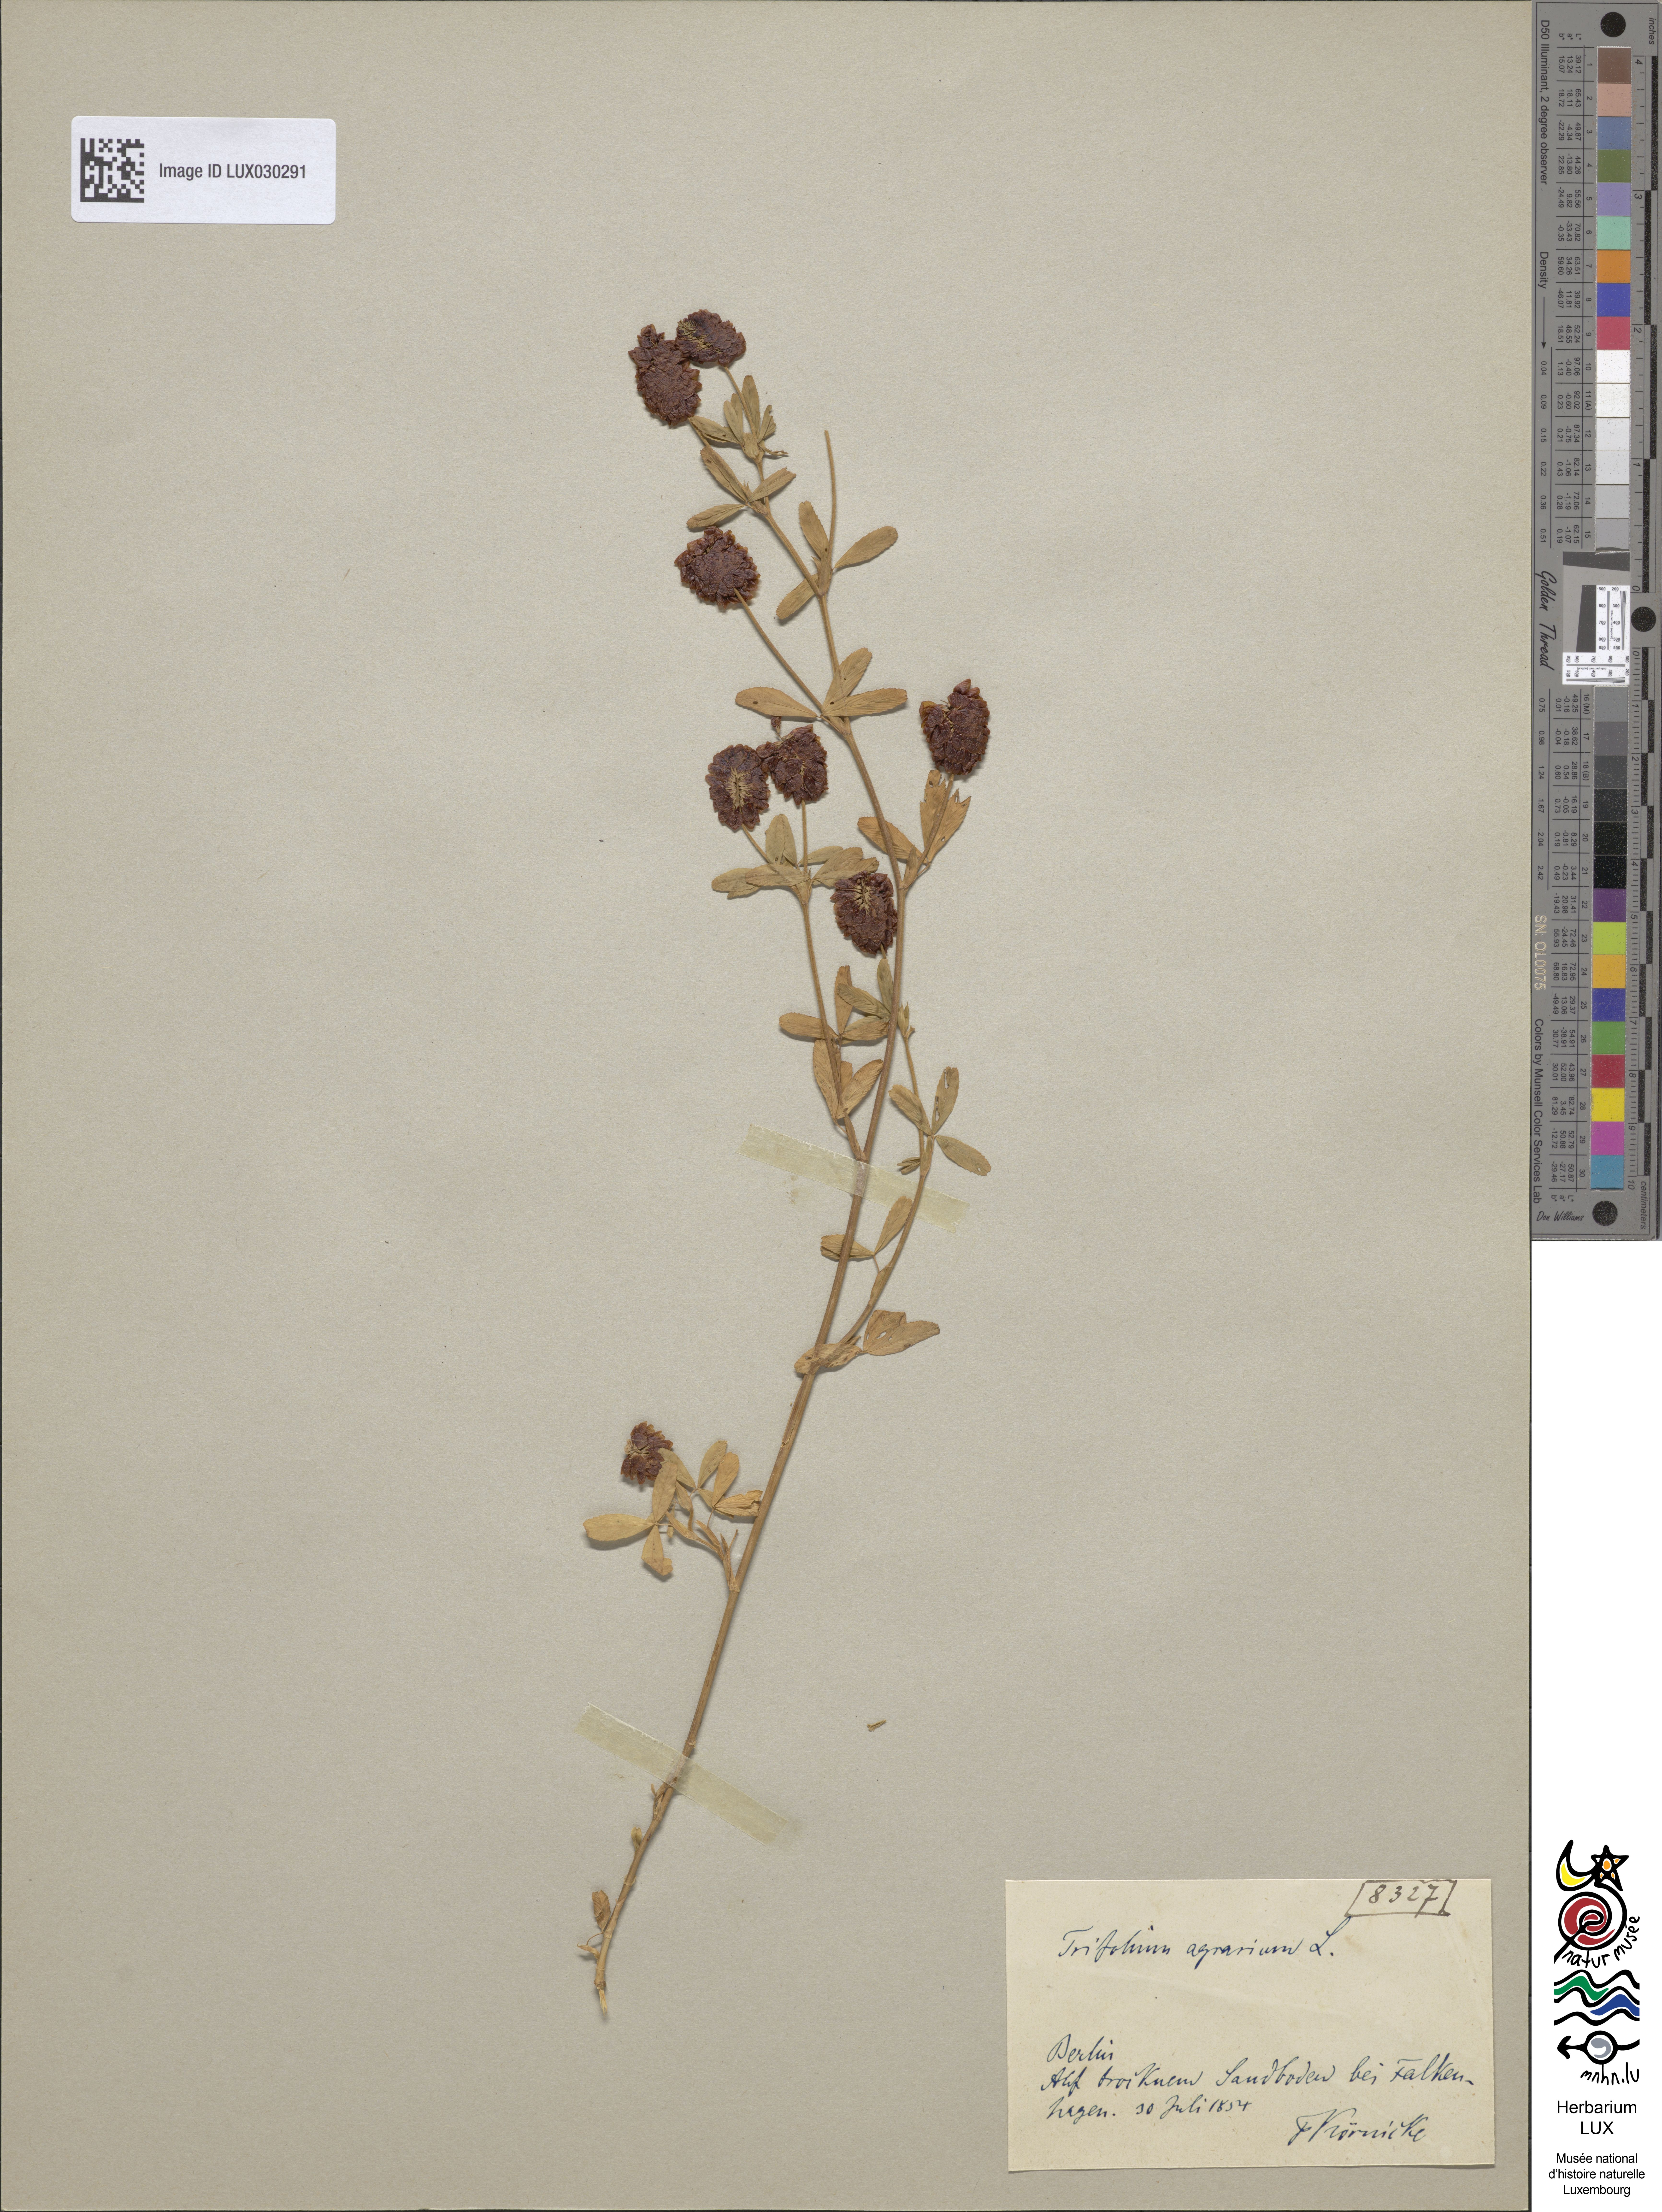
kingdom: Plantae
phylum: Tracheophyta
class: Magnoliopsida
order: Fabales
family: Fabaceae
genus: Trifolium
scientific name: Trifolium aureum
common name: Golden clover
